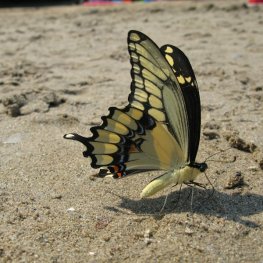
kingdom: Animalia
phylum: Arthropoda
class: Insecta
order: Lepidoptera
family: Papilionidae
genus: Papilio
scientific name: Papilio cresphontes
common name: Eastern Giant Swallowtail
